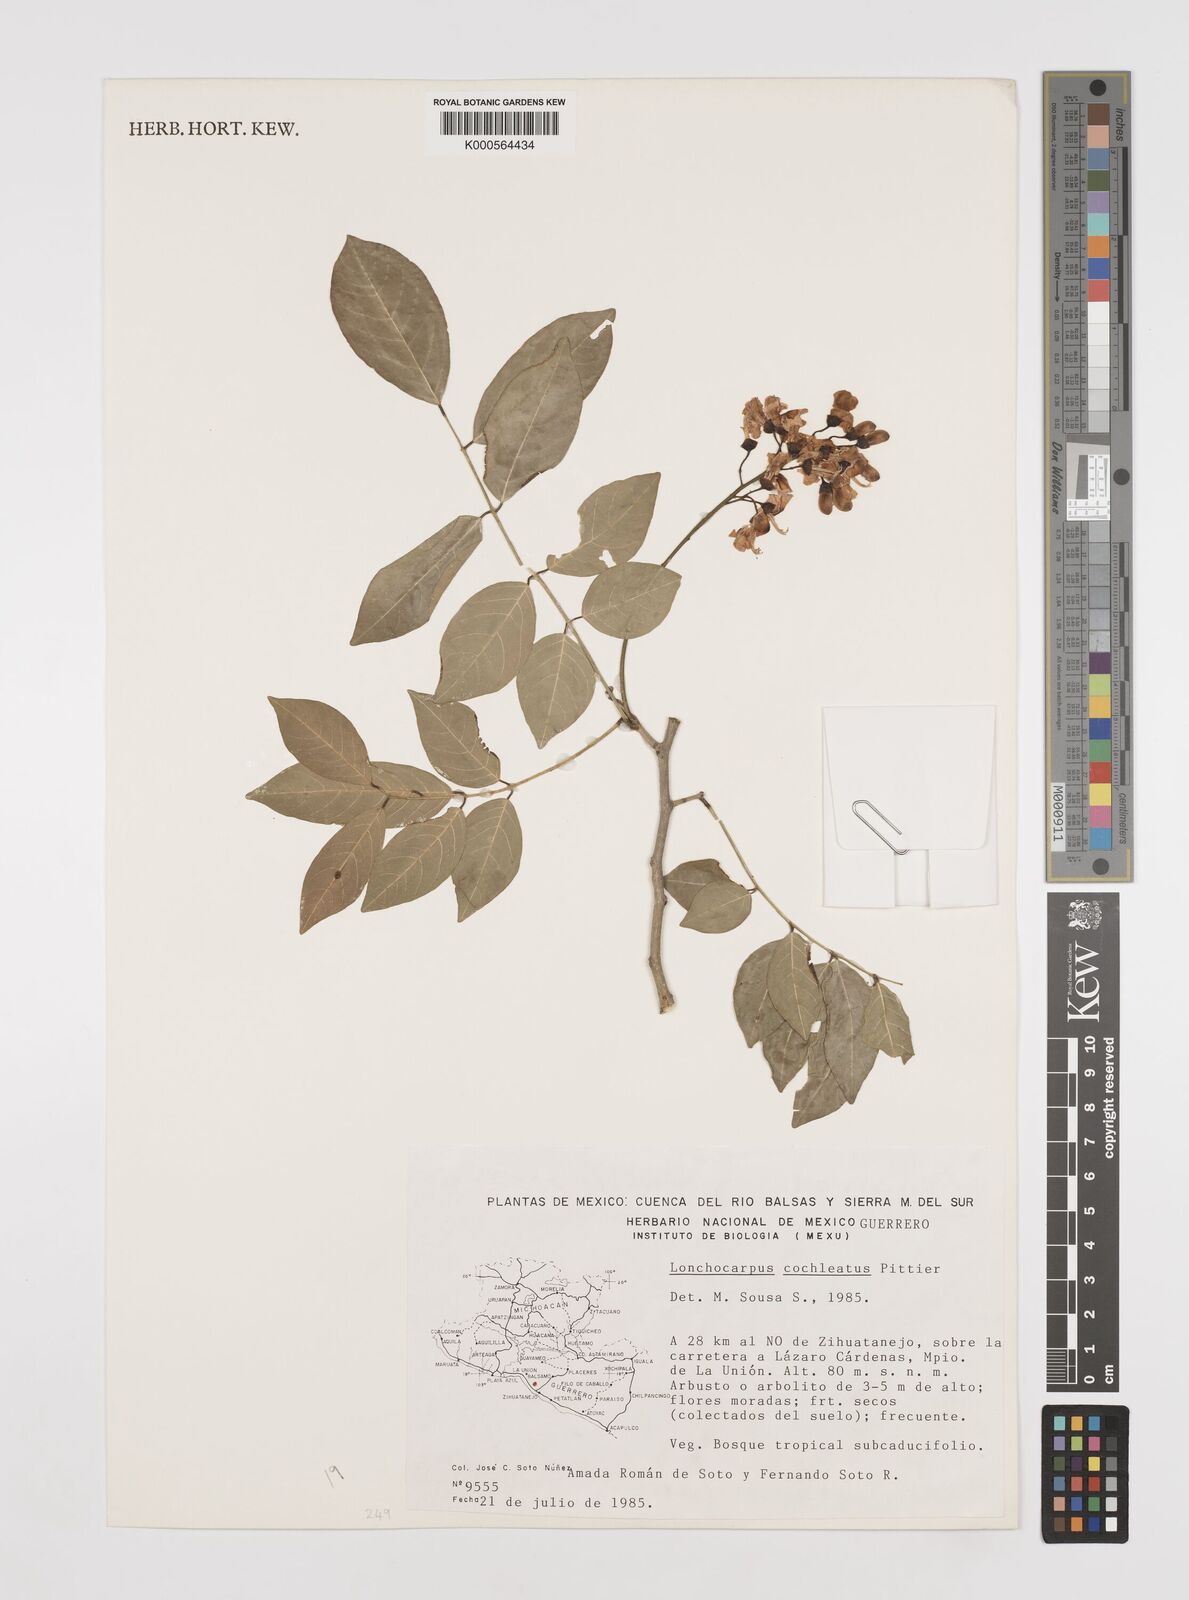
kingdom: Plantae
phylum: Tracheophyta
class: Magnoliopsida
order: Fabales
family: Fabaceae
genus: Lonchocarpus
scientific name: Lonchocarpus cochleatus
